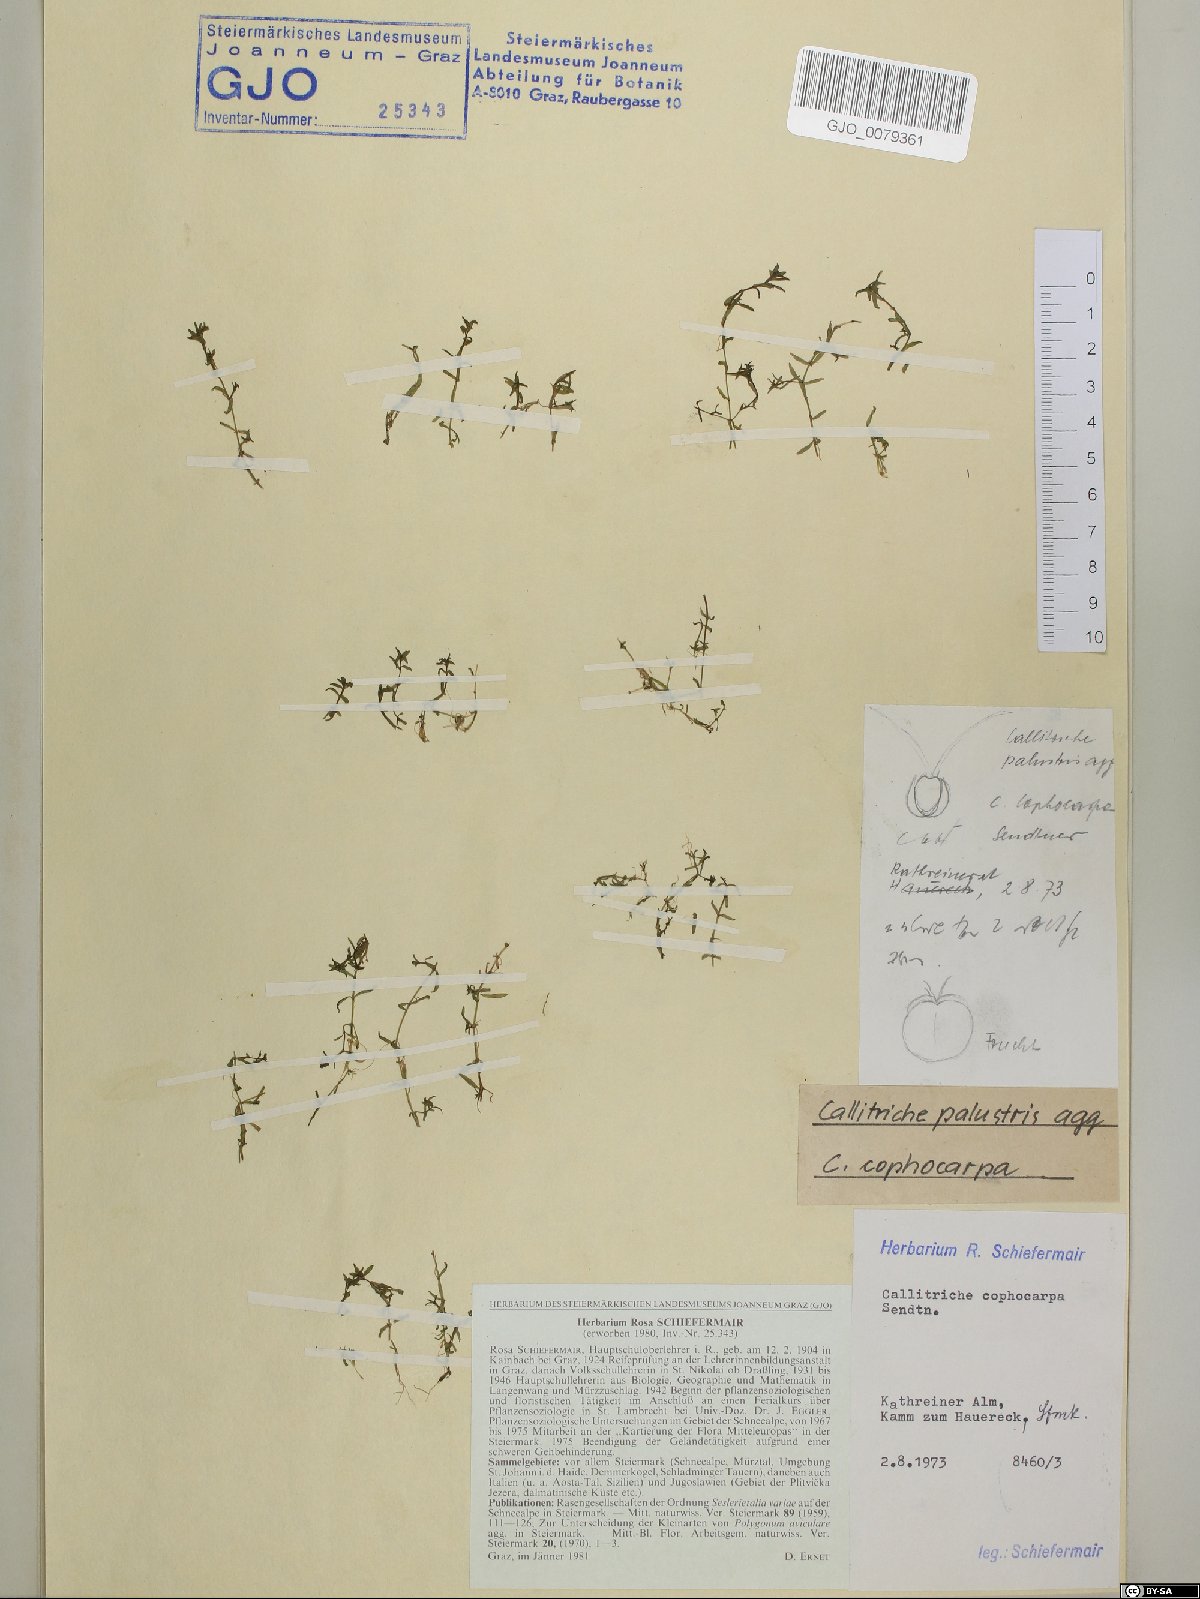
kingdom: Plantae
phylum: Tracheophyta
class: Magnoliopsida
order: Lamiales
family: Plantaginaceae
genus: Callitriche
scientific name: Callitriche cophocarpa
